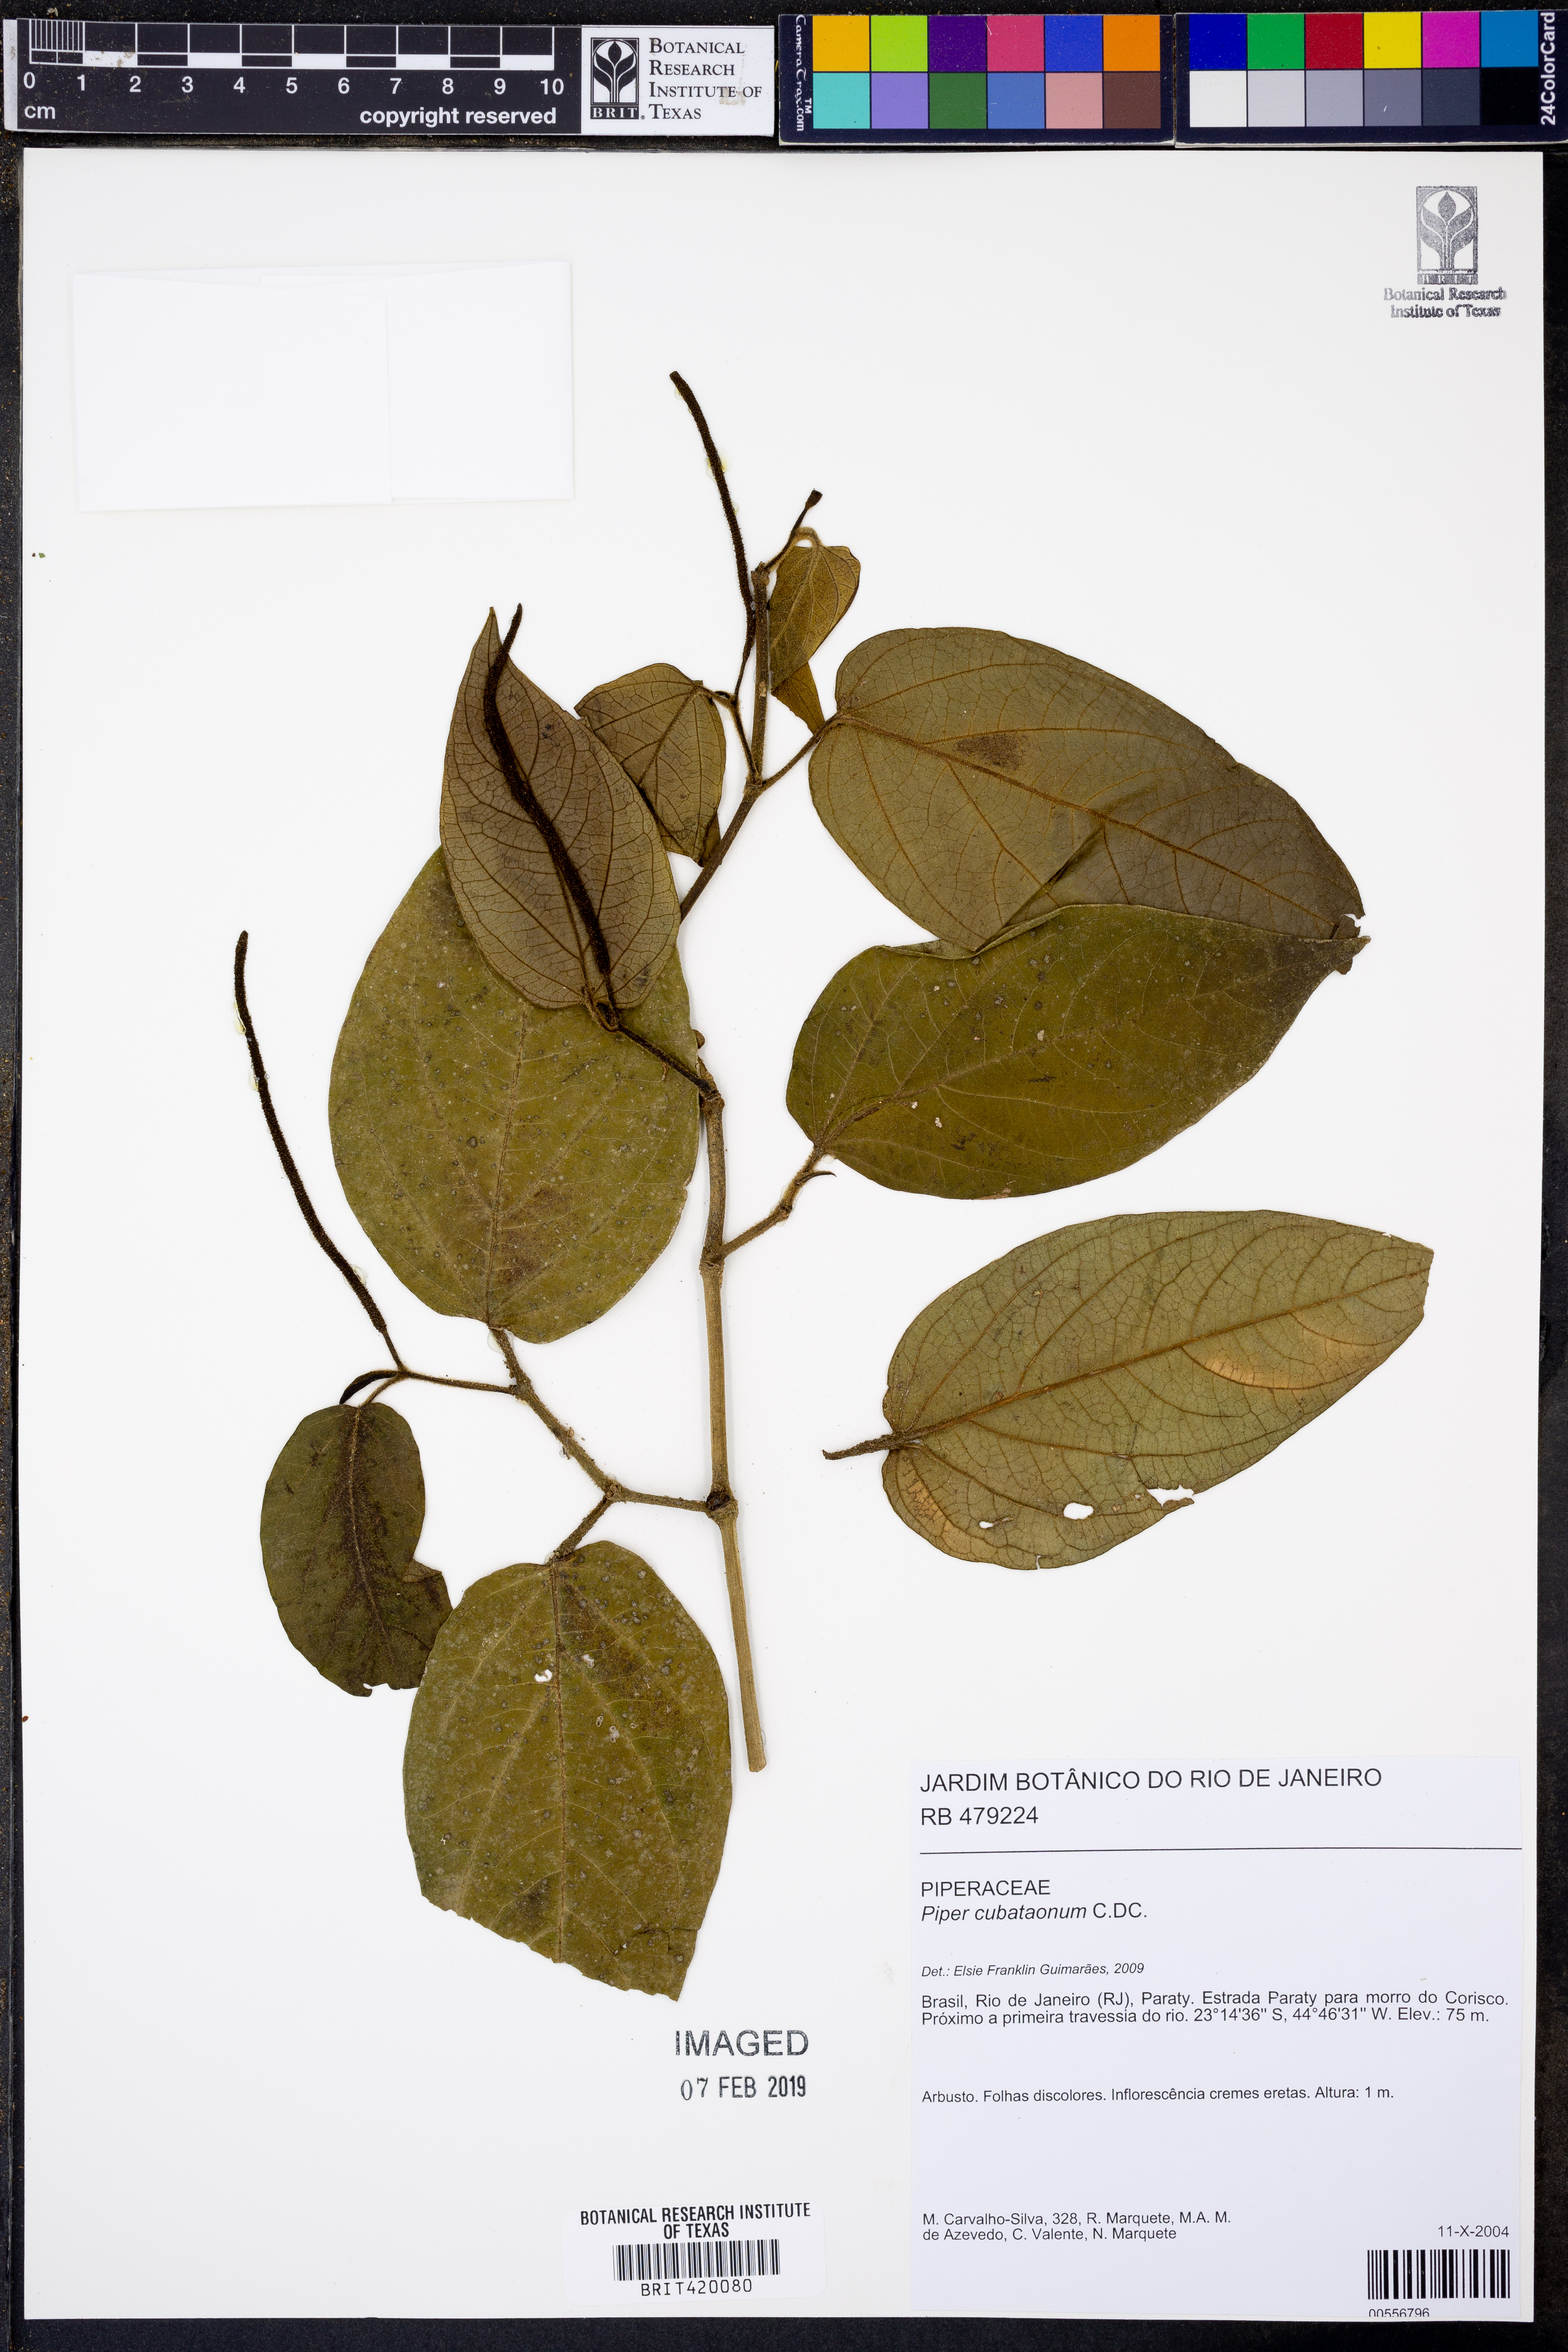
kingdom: Plantae
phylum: Tracheophyta
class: Magnoliopsida
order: Piperales
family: Piperaceae
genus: Piper
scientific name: Piper cubataonum
